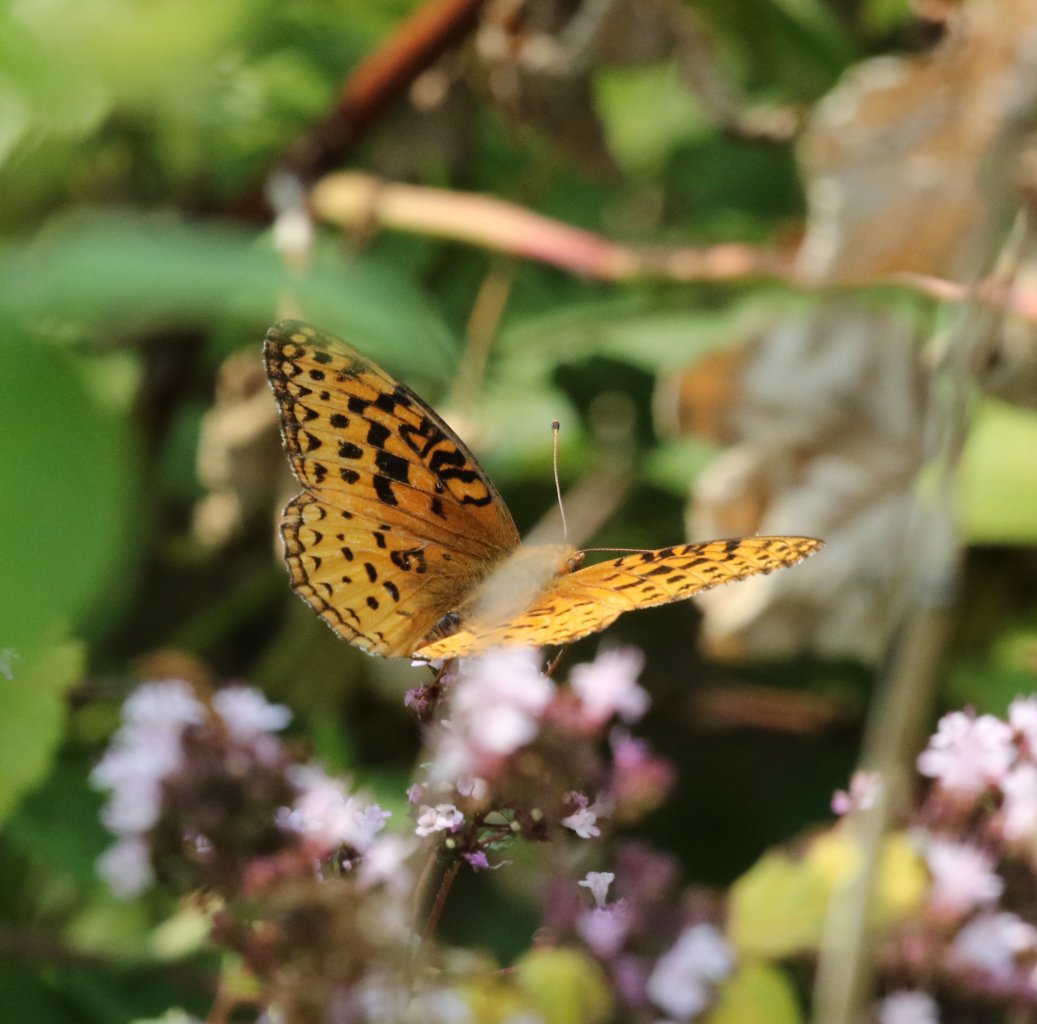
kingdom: Animalia
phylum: Arthropoda
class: Insecta
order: Lepidoptera
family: Nymphalidae
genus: Speyeria
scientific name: Speyeria aphrodite
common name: Aphrodite Fritillary
